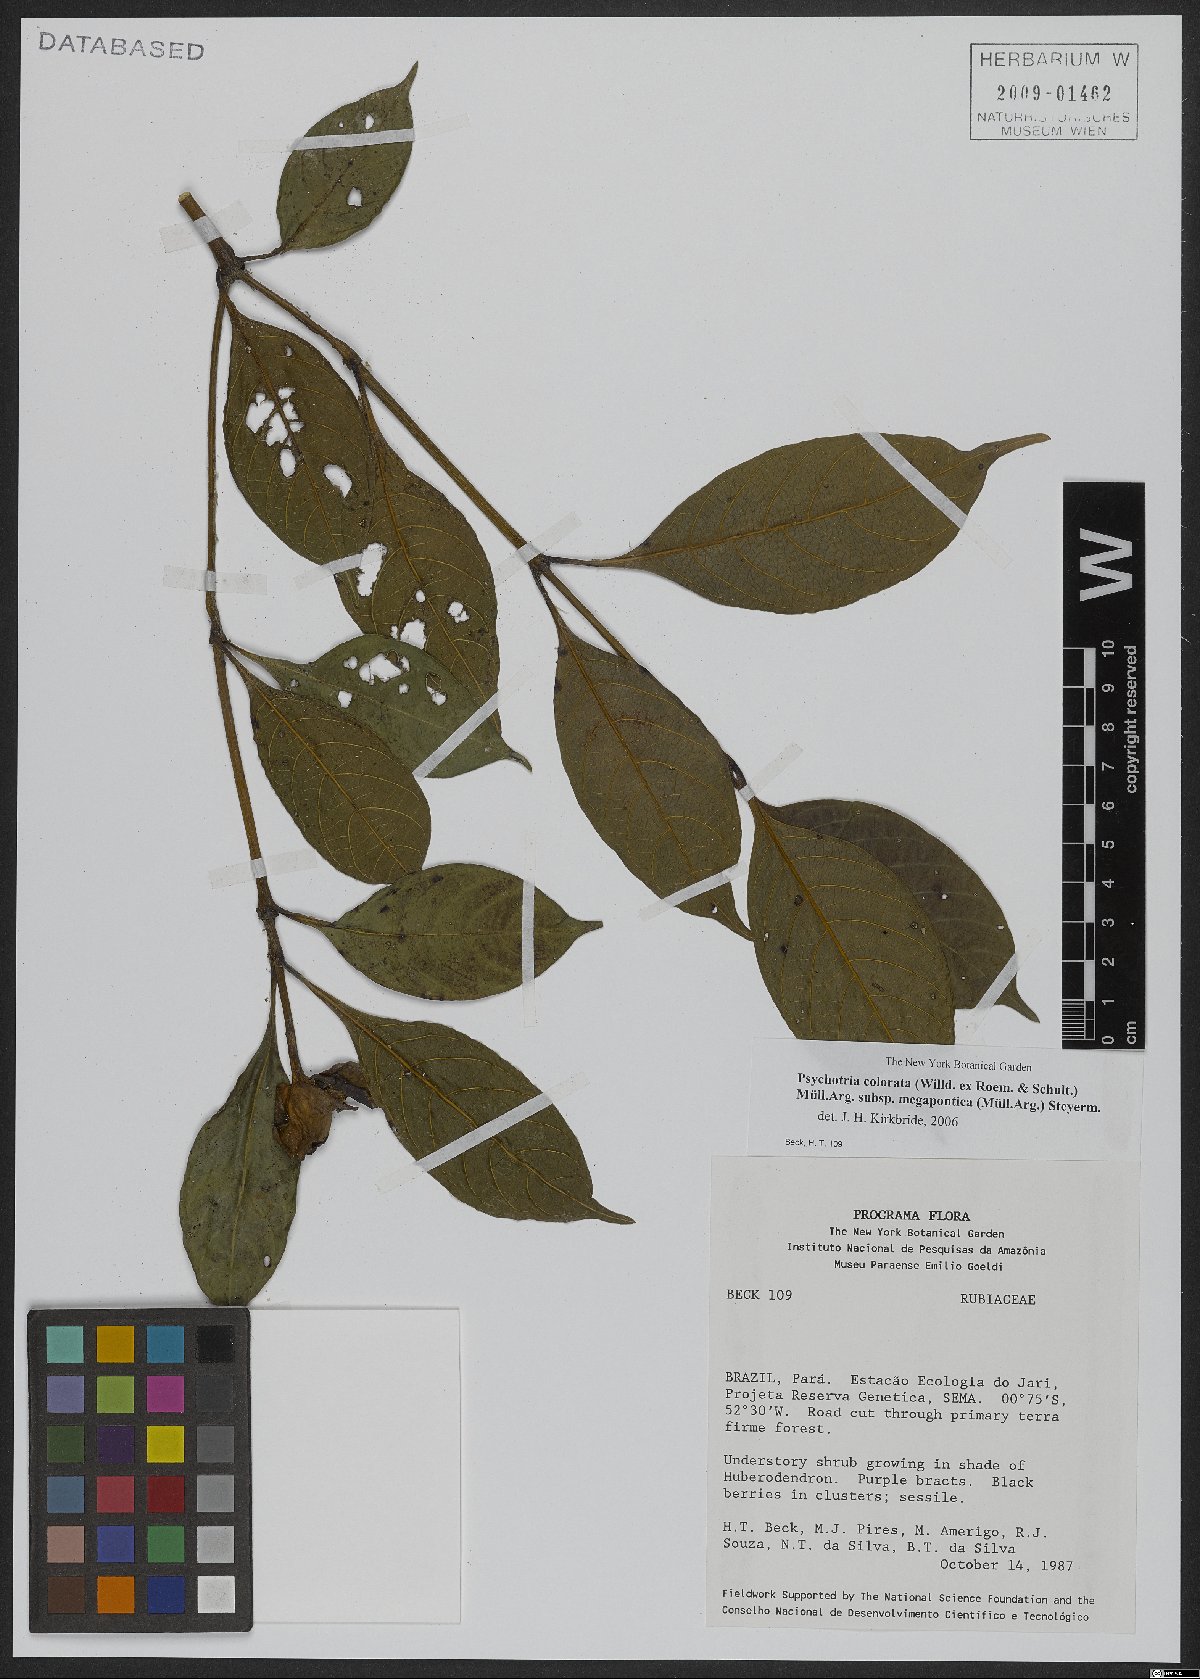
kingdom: Plantae
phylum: Tracheophyta
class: Magnoliopsida
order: Gentianales
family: Rubiaceae
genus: Palicourea
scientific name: Palicourea colorata
